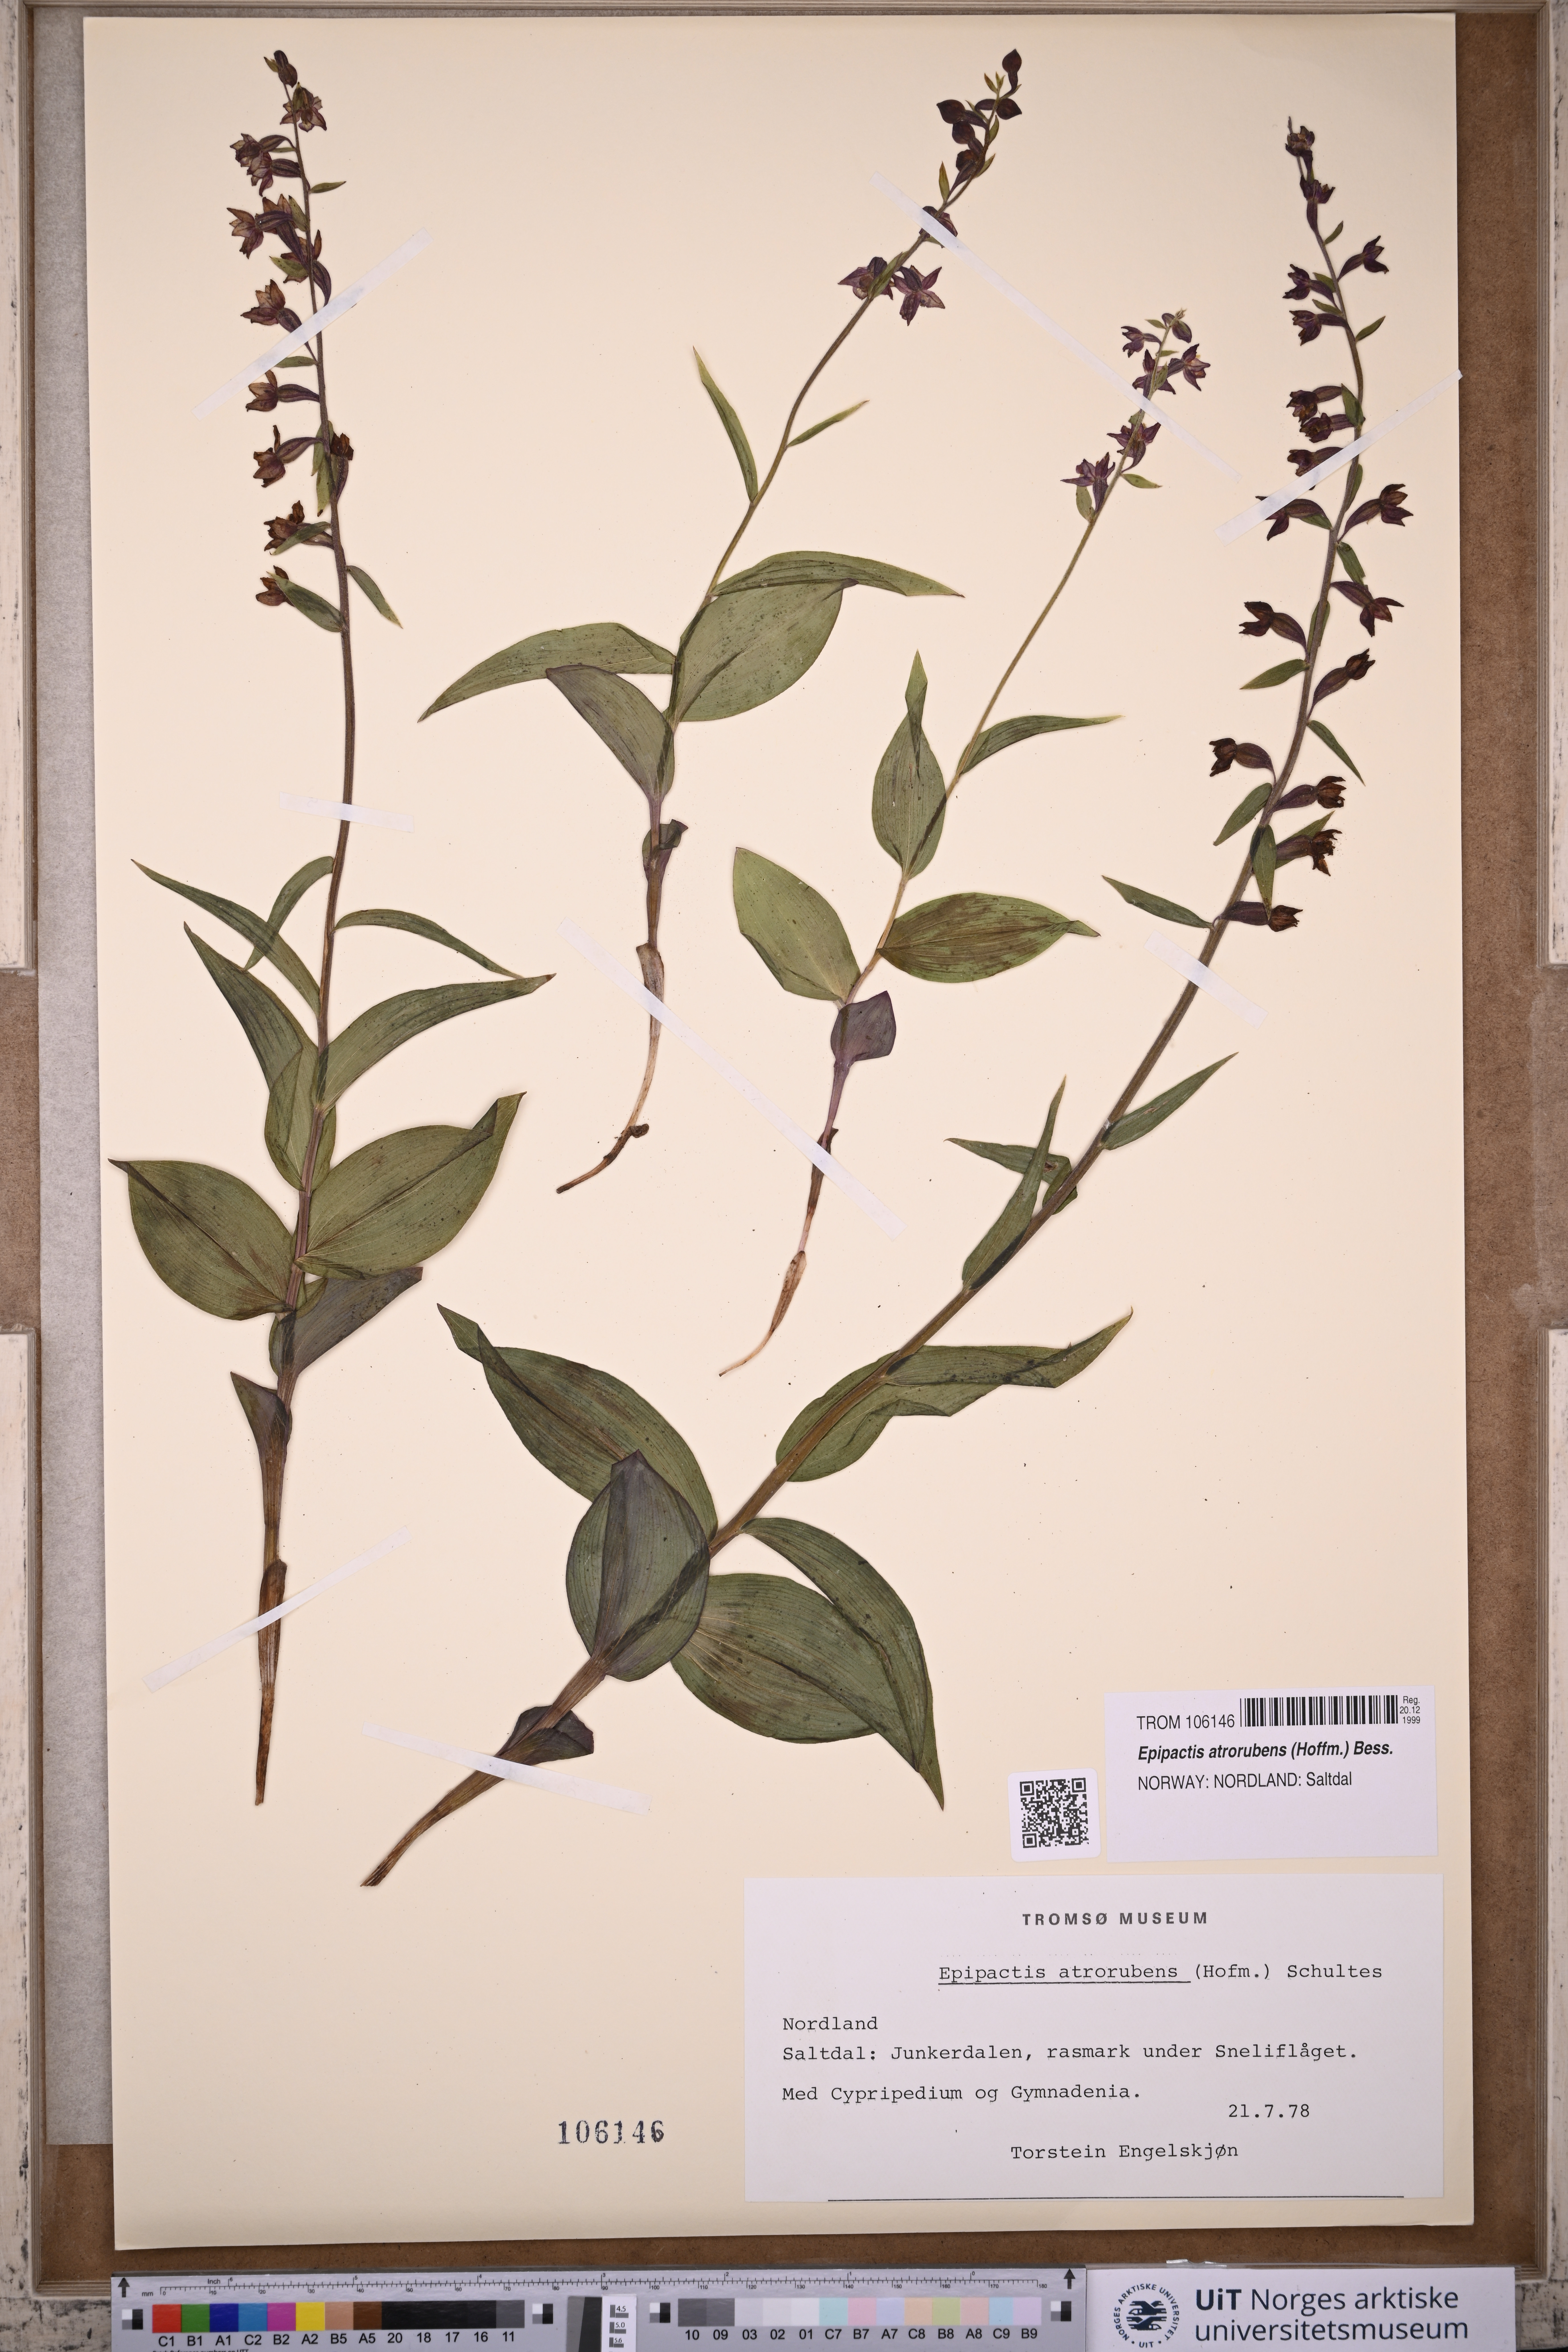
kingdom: Plantae
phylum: Tracheophyta
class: Liliopsida
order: Asparagales
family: Orchidaceae
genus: Epipactis
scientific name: Epipactis atrorubens
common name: Dark-red helleborine
